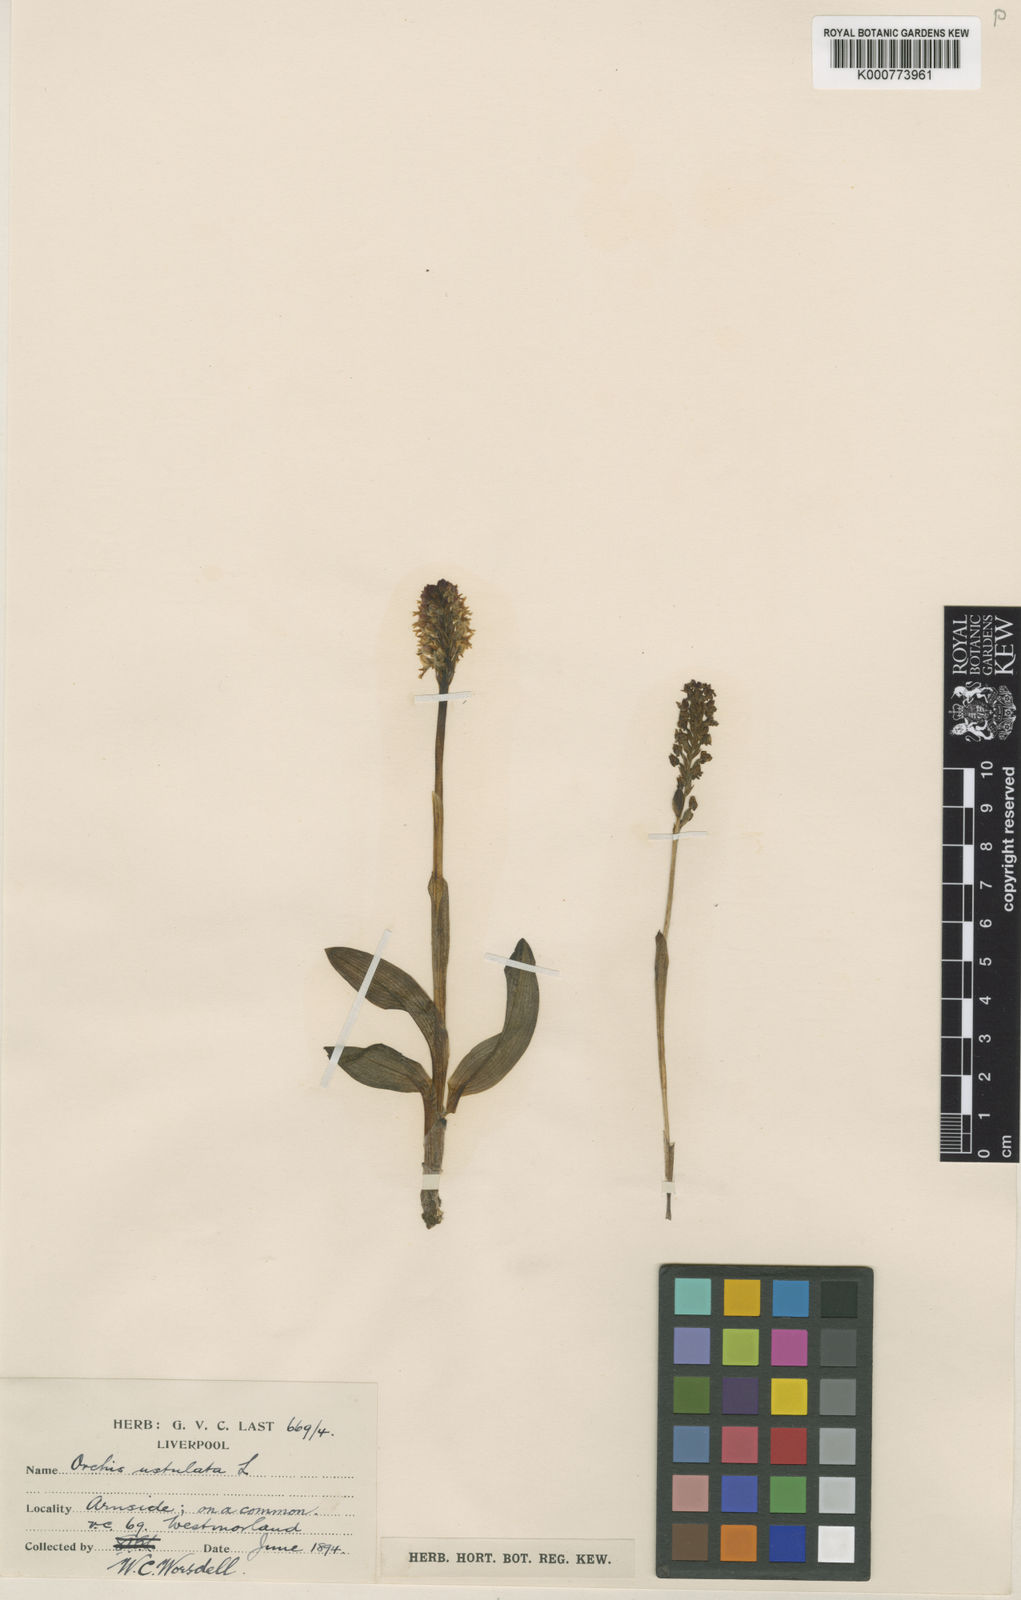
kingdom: Plantae
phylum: Tracheophyta
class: Liliopsida
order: Asparagales
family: Orchidaceae
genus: Neotinea
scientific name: Neotinea ustulata
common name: Burnt orchid
